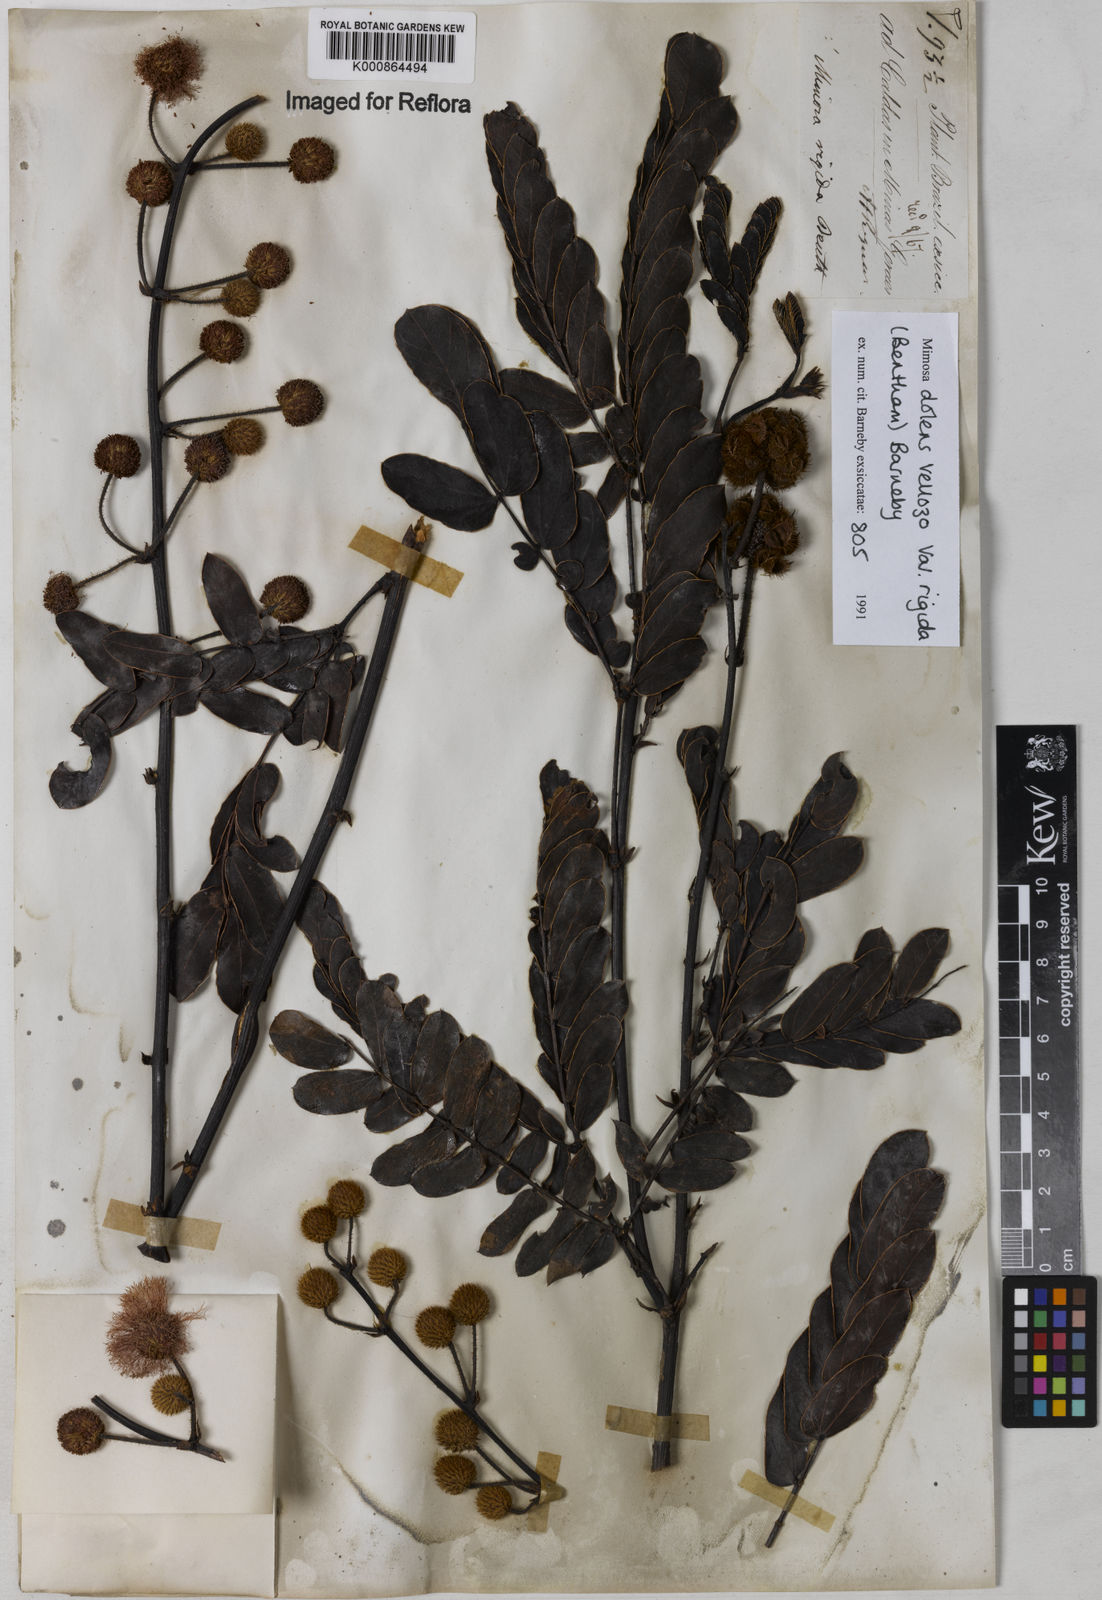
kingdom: Plantae
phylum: Tracheophyta
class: Magnoliopsida
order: Fabales
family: Fabaceae
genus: Mimosa
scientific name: Mimosa dolens
